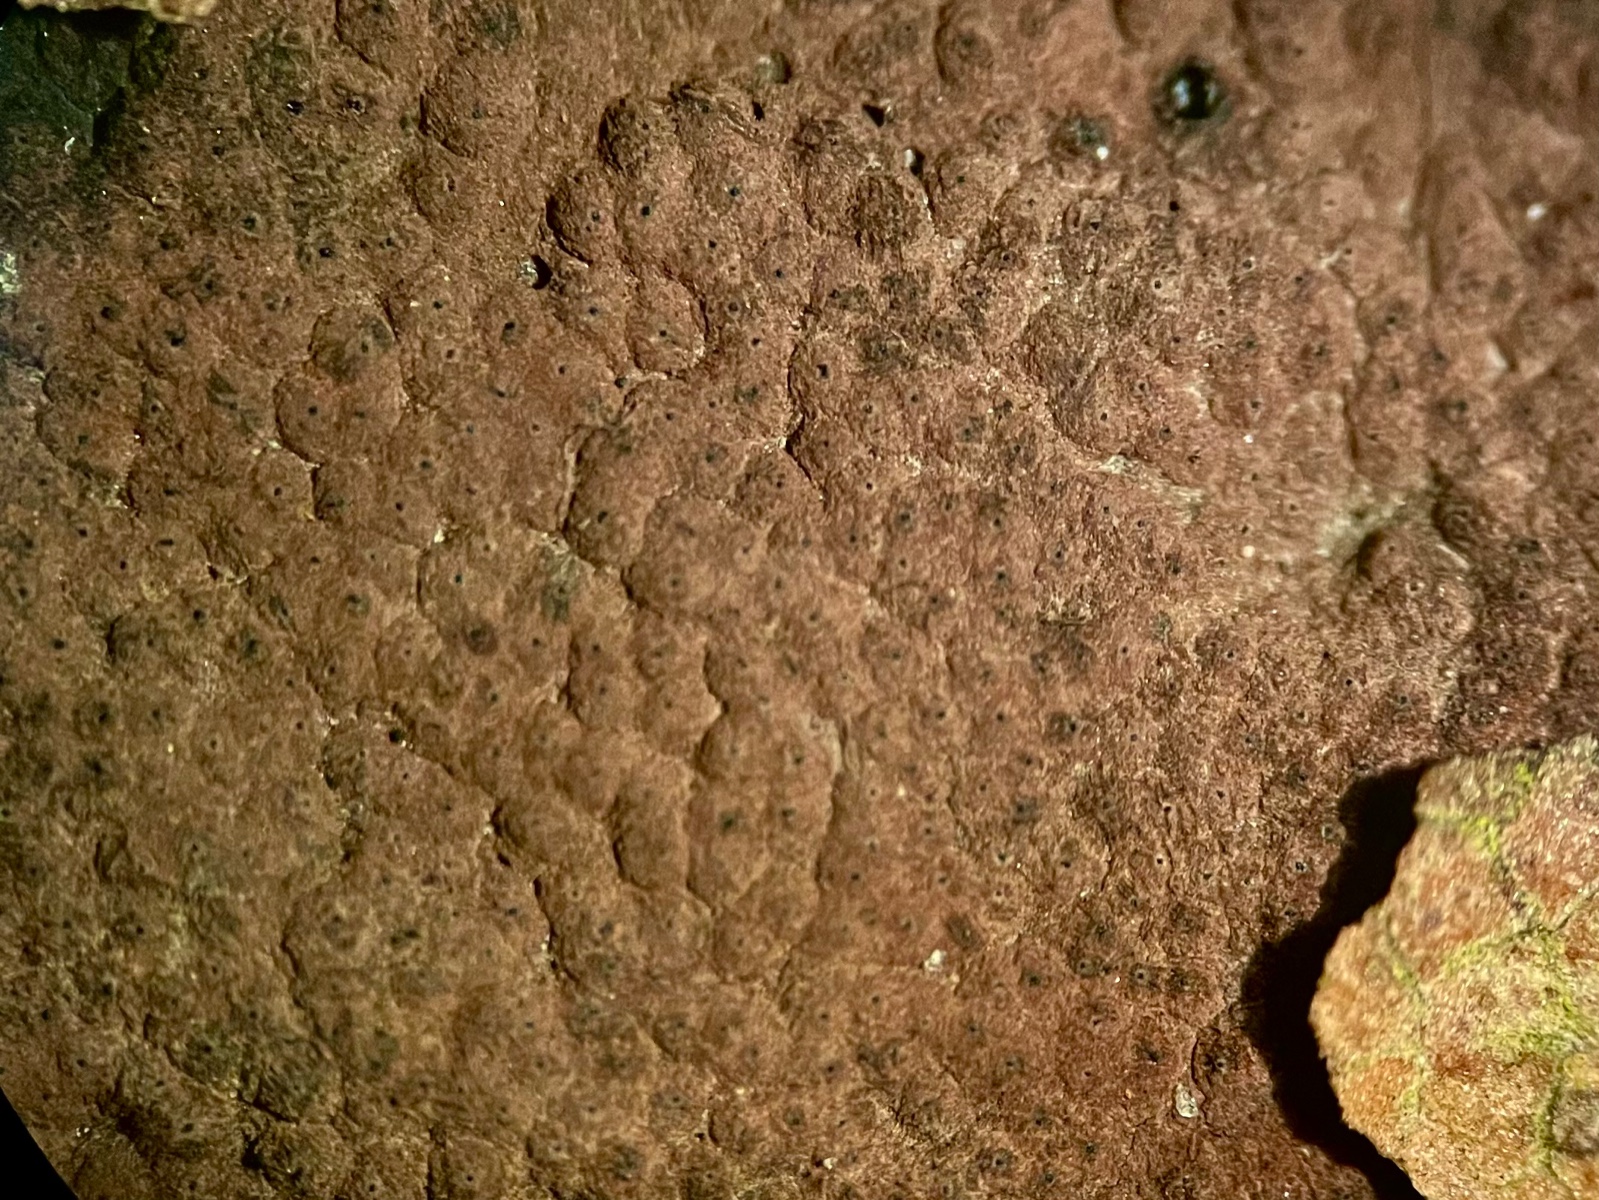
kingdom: Fungi
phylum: Ascomycota
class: Sordariomycetes
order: Xylariales
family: Hypoxylaceae
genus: Hypoxylon
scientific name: Hypoxylon petriniae
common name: nedsænket kulbær
